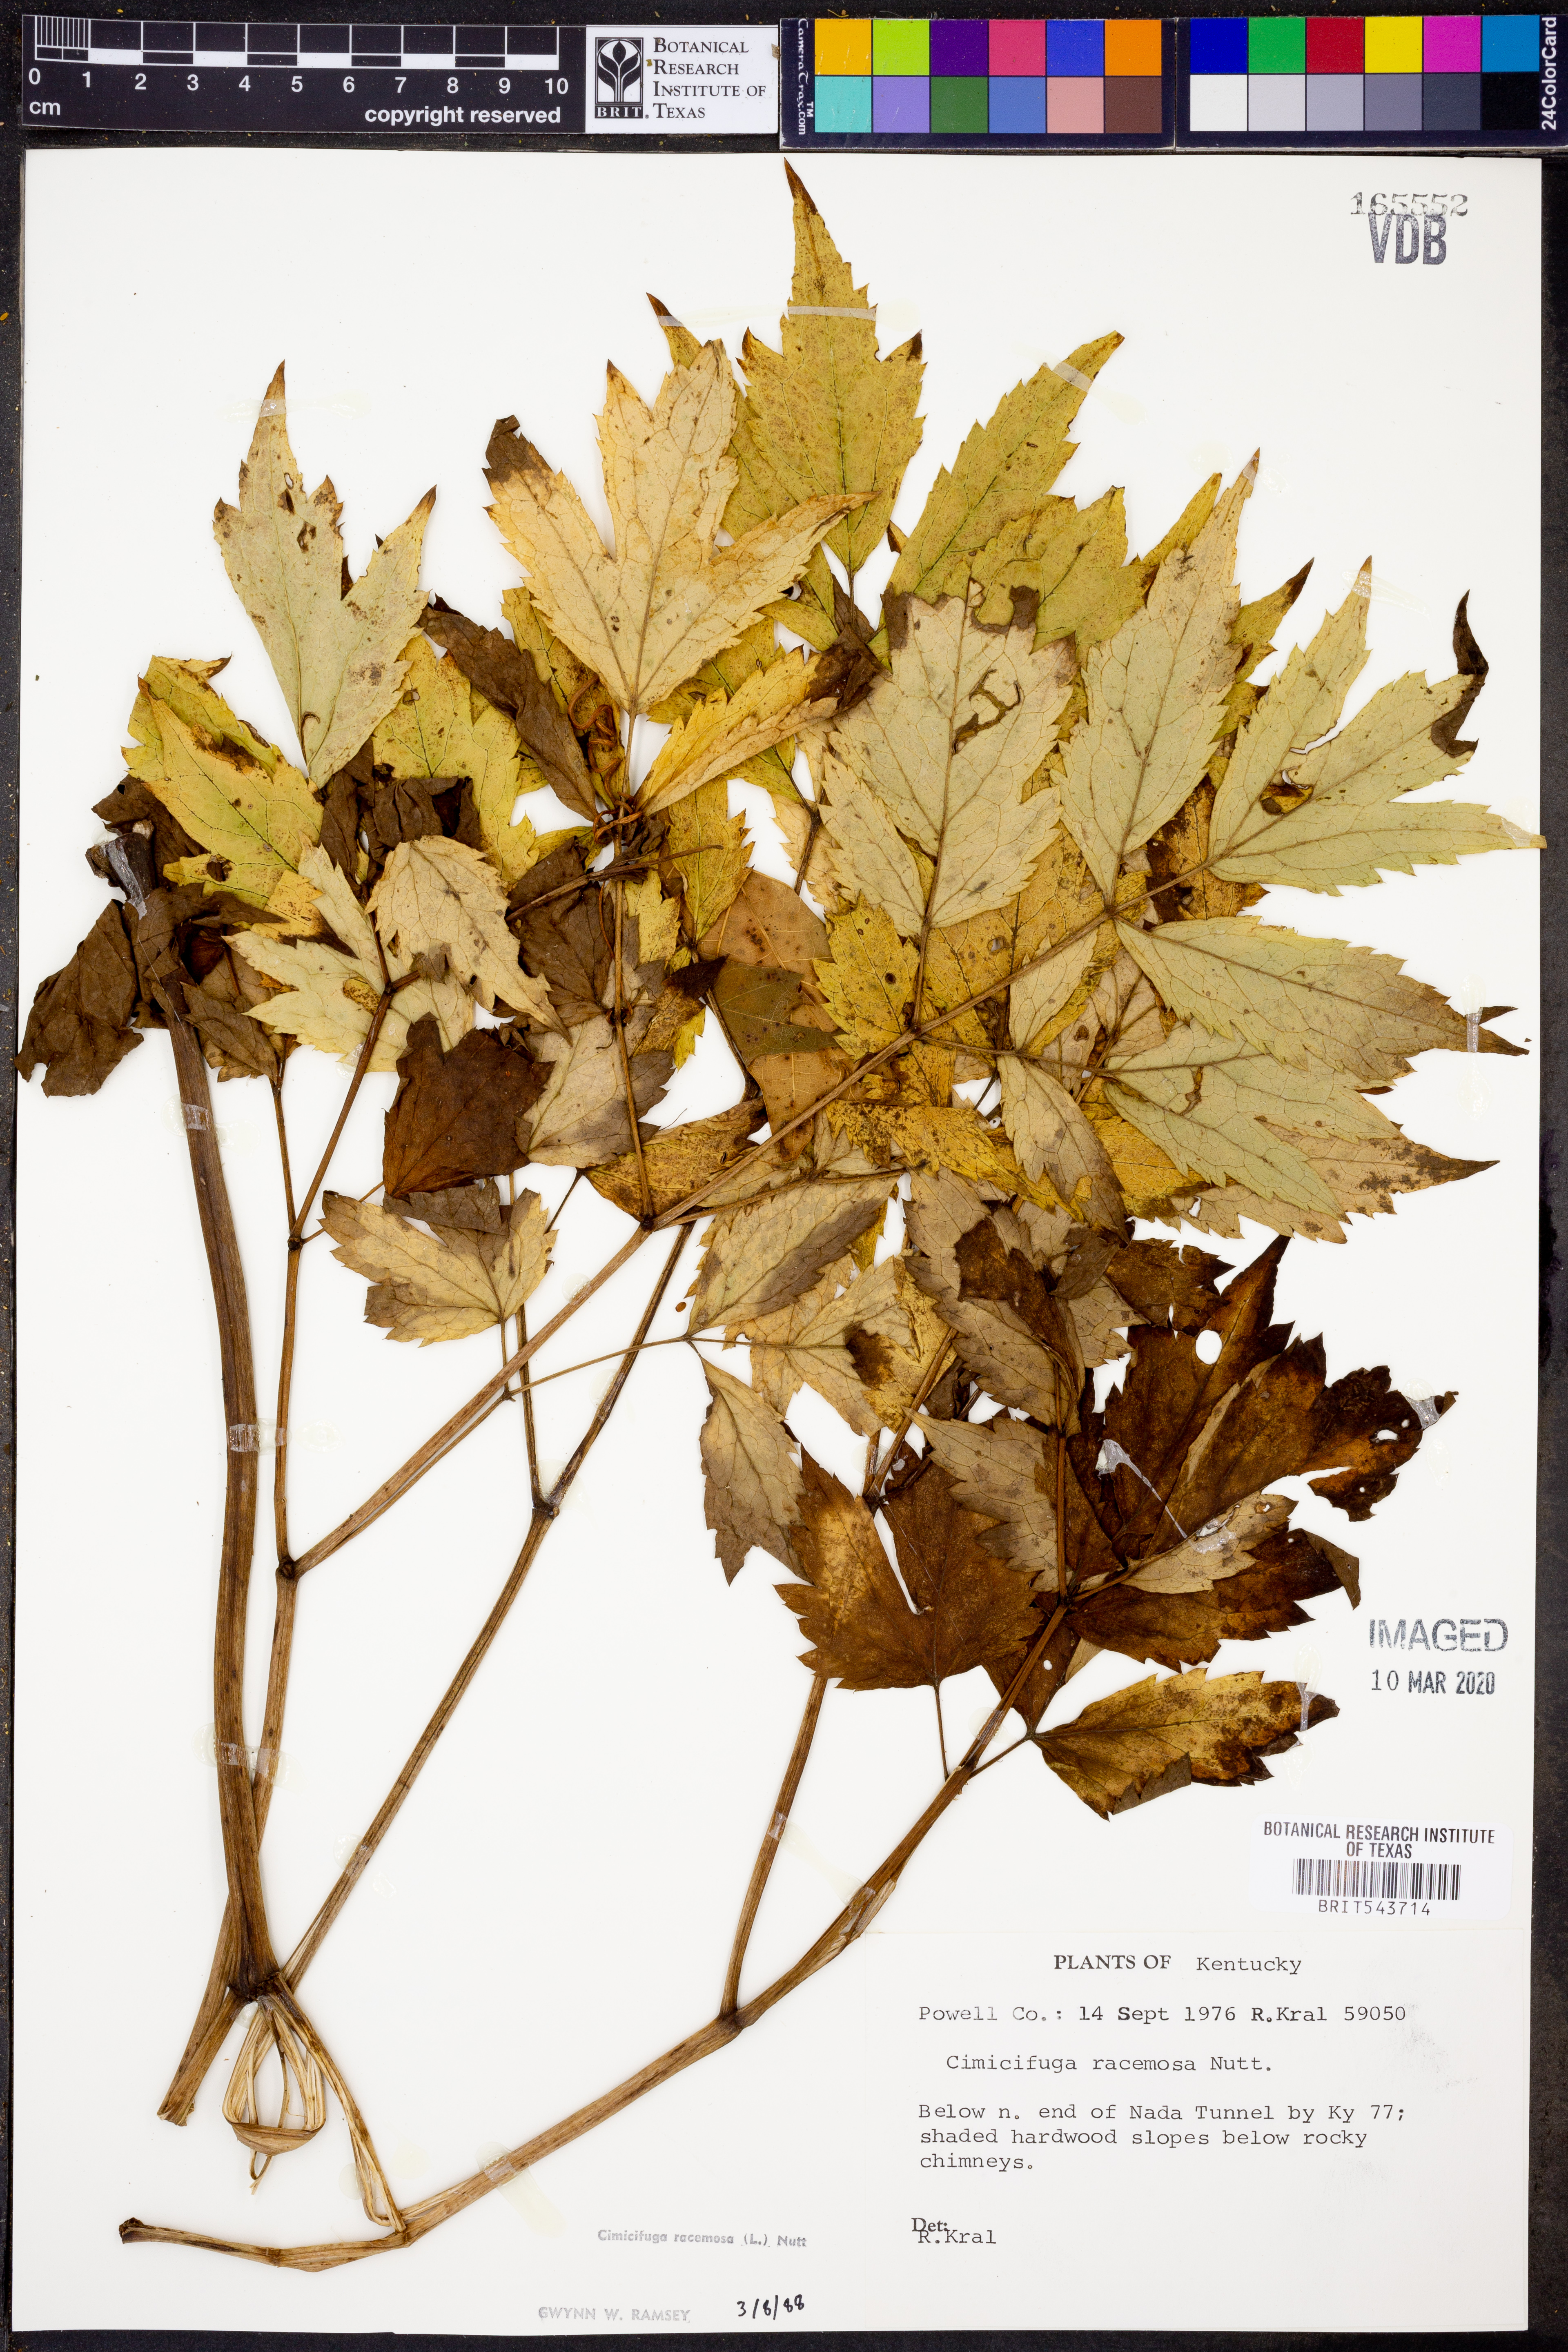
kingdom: Plantae
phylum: Tracheophyta
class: Magnoliopsida
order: Ranunculales
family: Ranunculaceae
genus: Actaea
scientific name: Actaea racemosa
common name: Black cohosh
